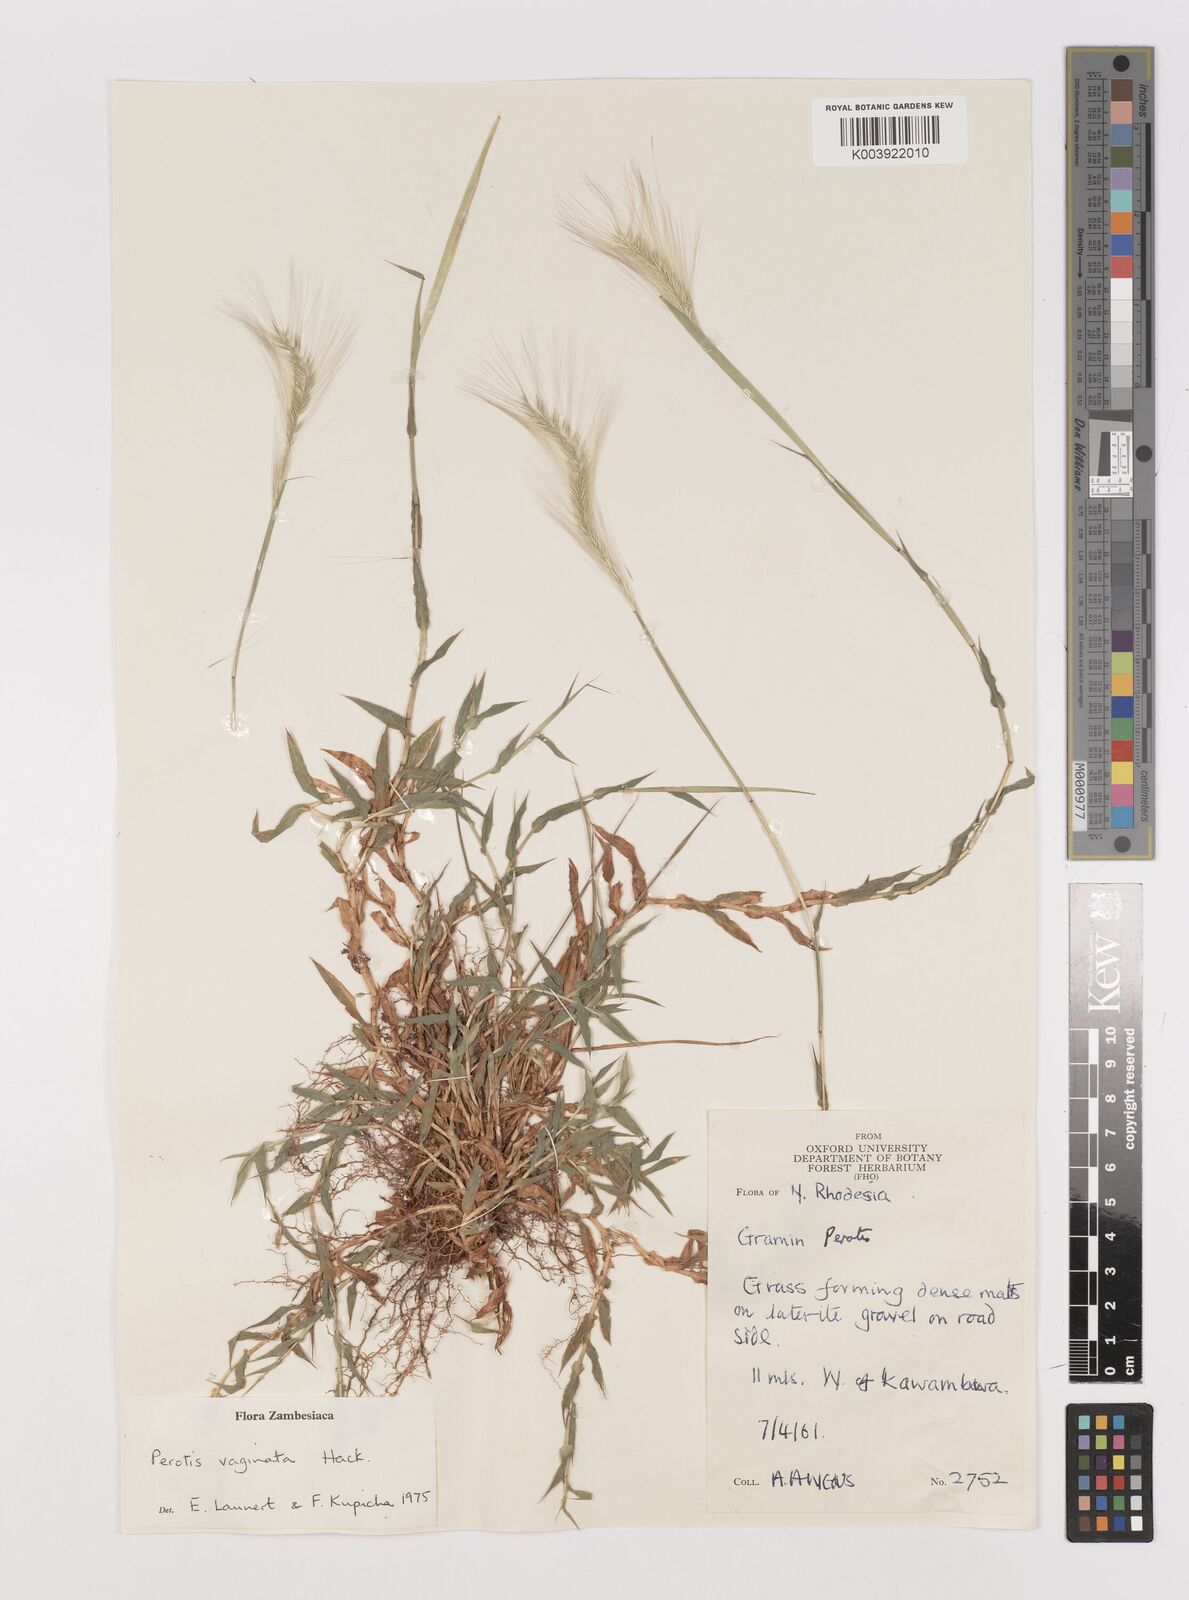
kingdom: Plantae
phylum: Tracheophyta
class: Liliopsida
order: Poales
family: Poaceae
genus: Perotis
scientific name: Perotis vaginata
